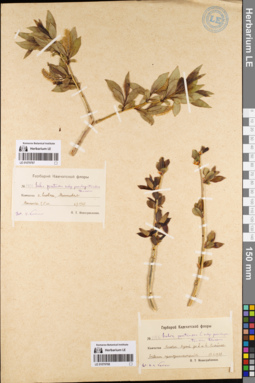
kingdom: Plantae
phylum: Tracheophyta
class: Magnoliopsida
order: Malpighiales
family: Salicaceae
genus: Salix
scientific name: Salix pseudopentandra
